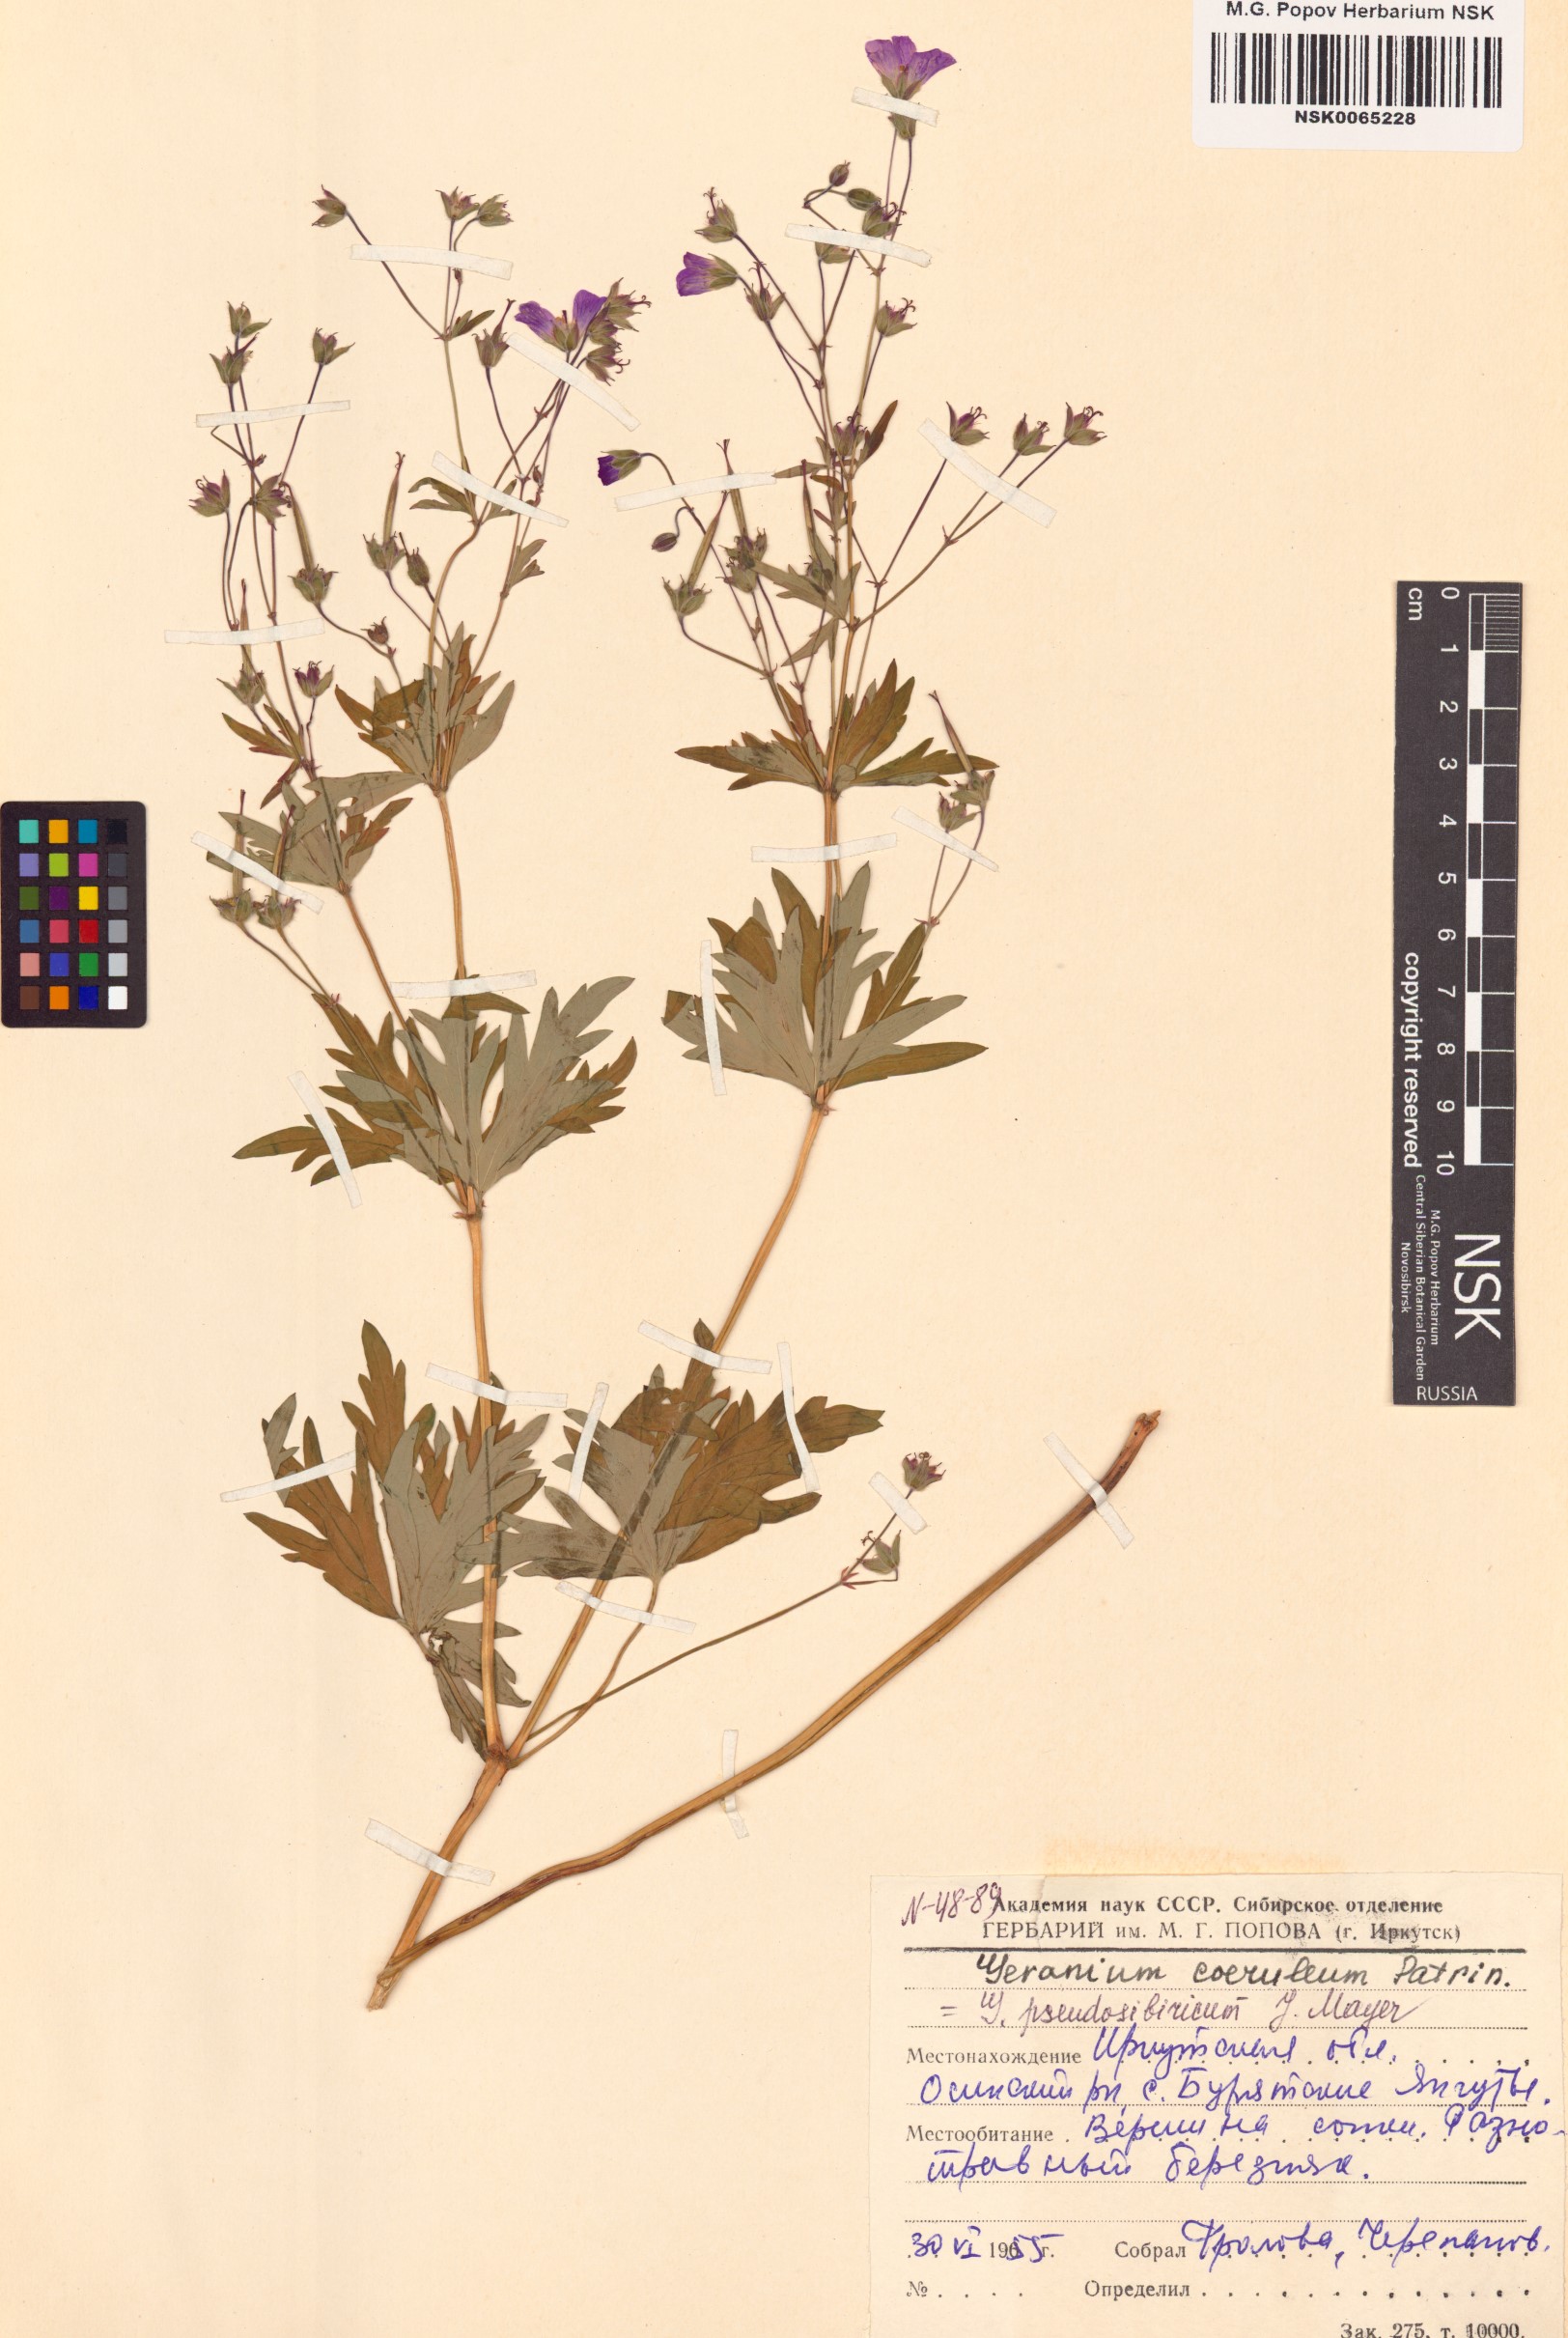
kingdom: Plantae
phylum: Tracheophyta
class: Magnoliopsida
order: Geraniales
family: Geraniaceae
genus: Geranium
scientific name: Geranium pseudosibiricum
